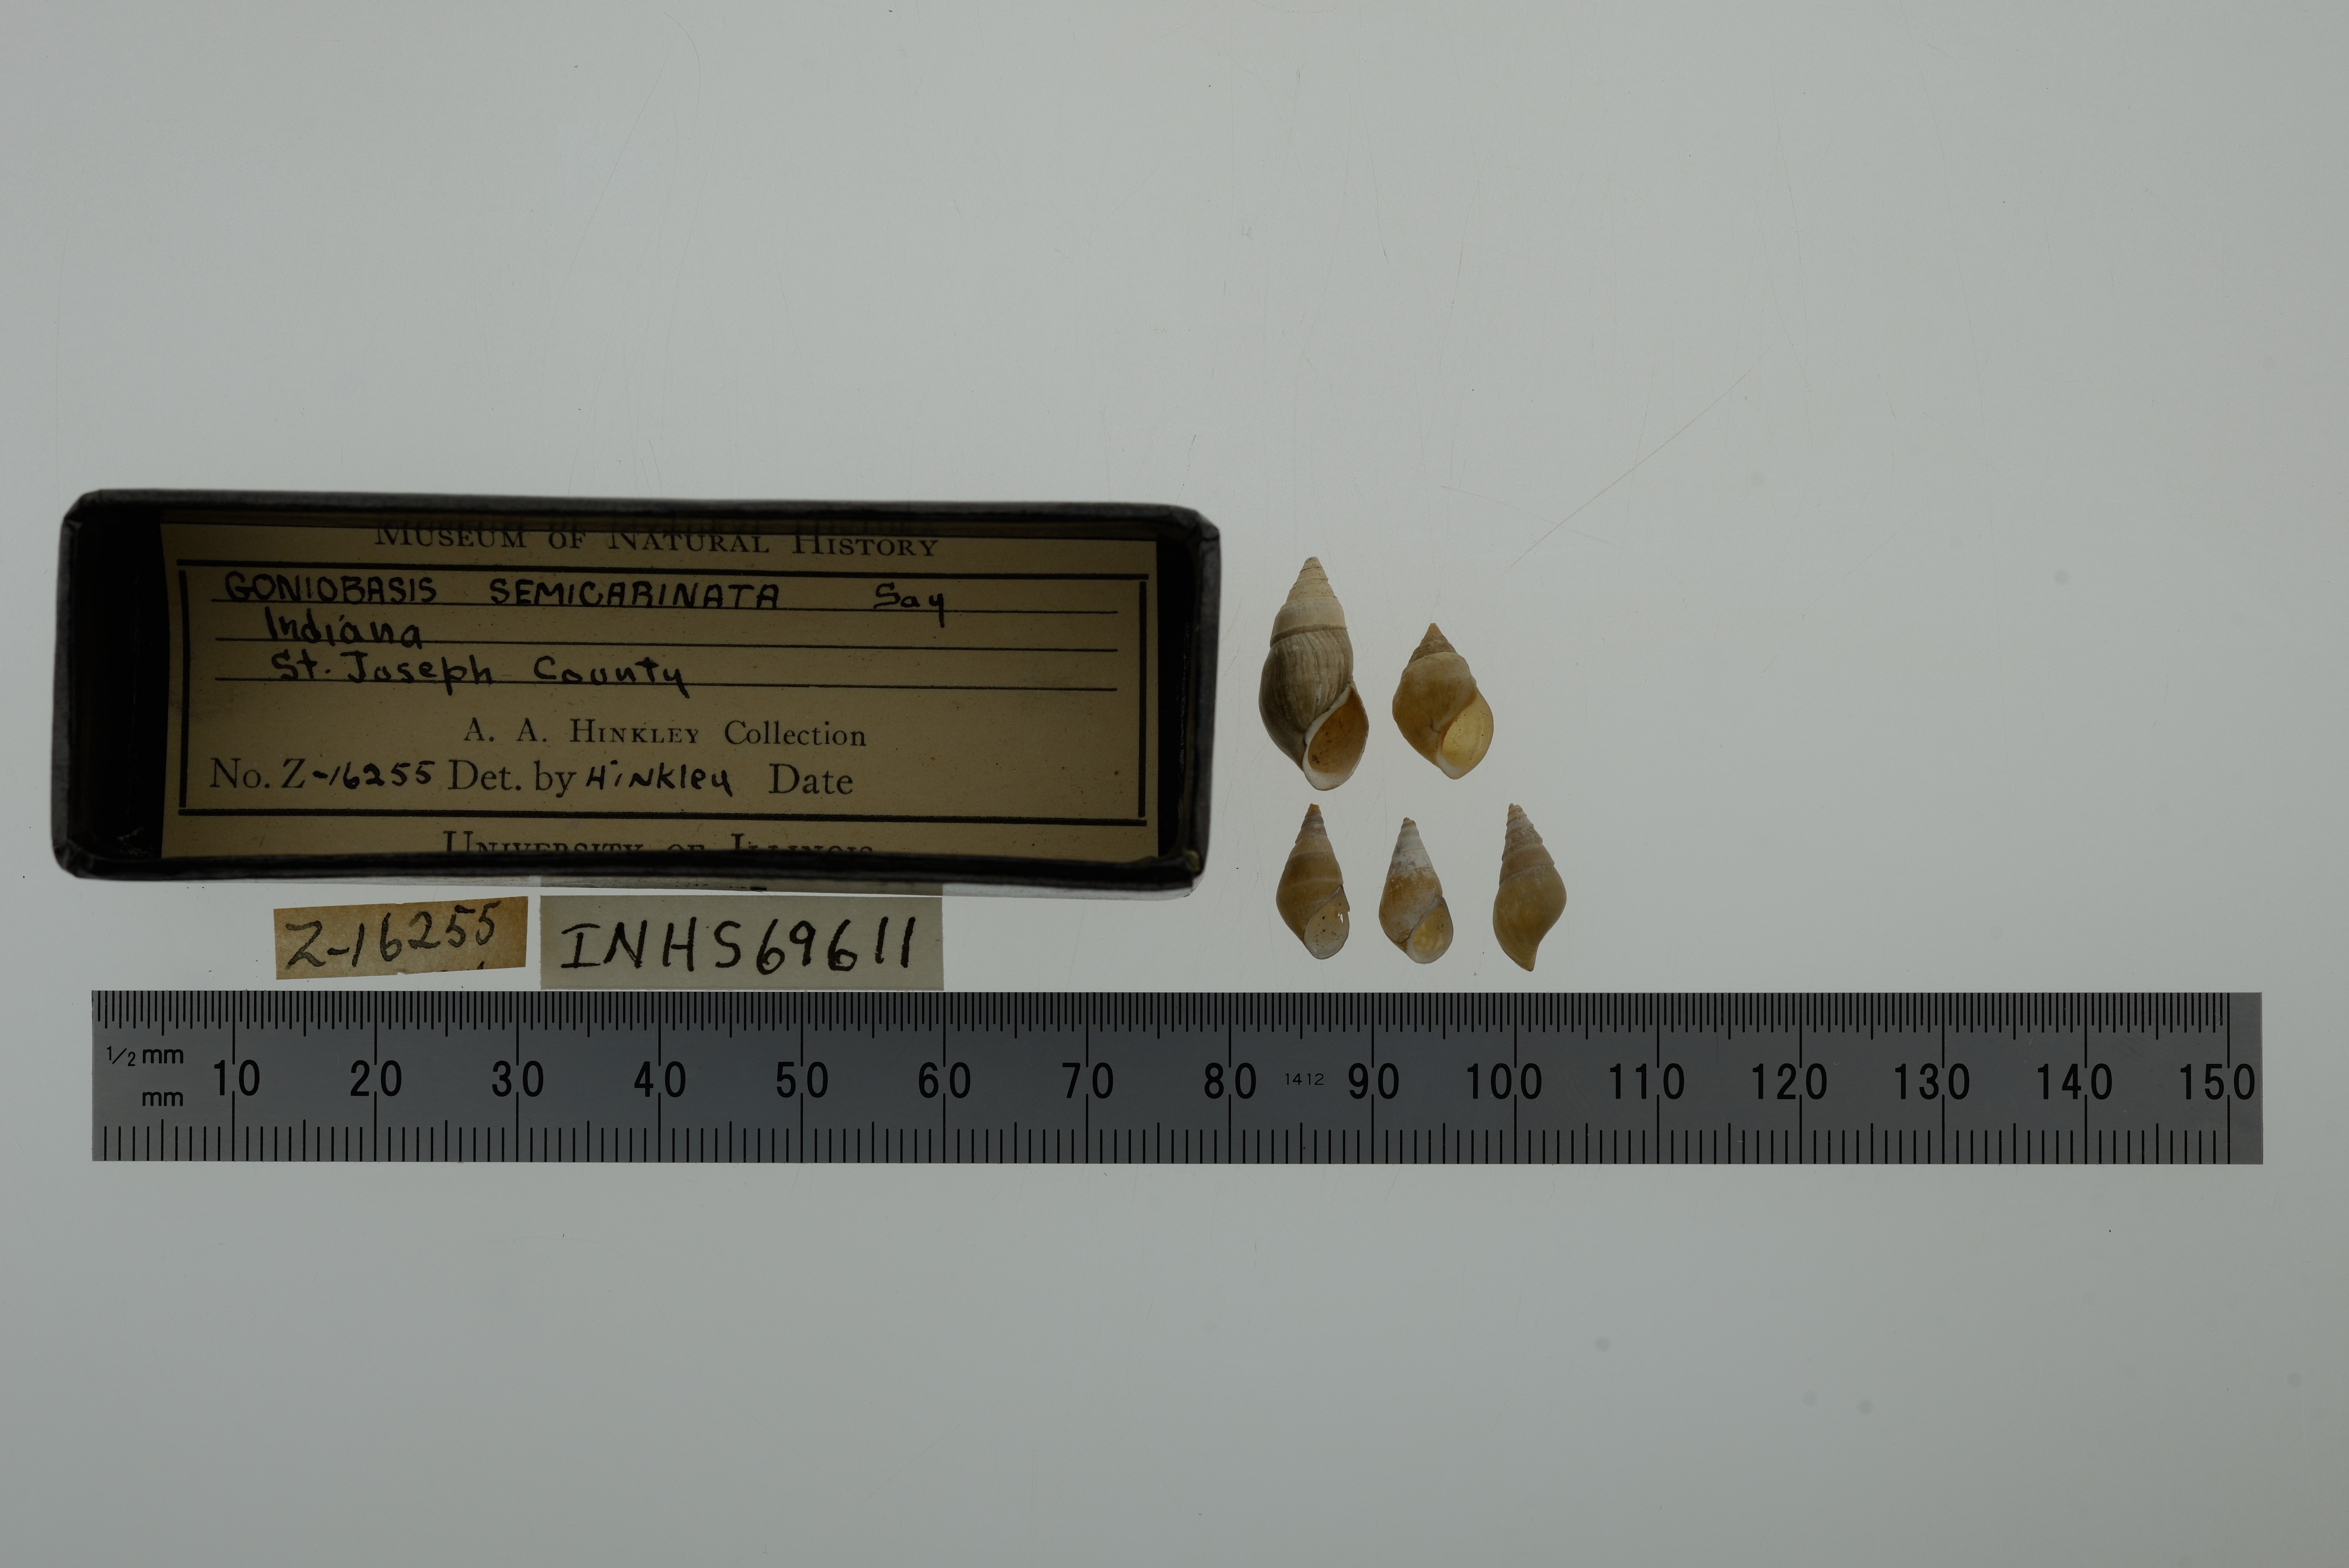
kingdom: Animalia
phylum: Mollusca
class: Gastropoda
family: Pleuroceridae
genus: Elimia
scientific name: Elimia semicarinata
